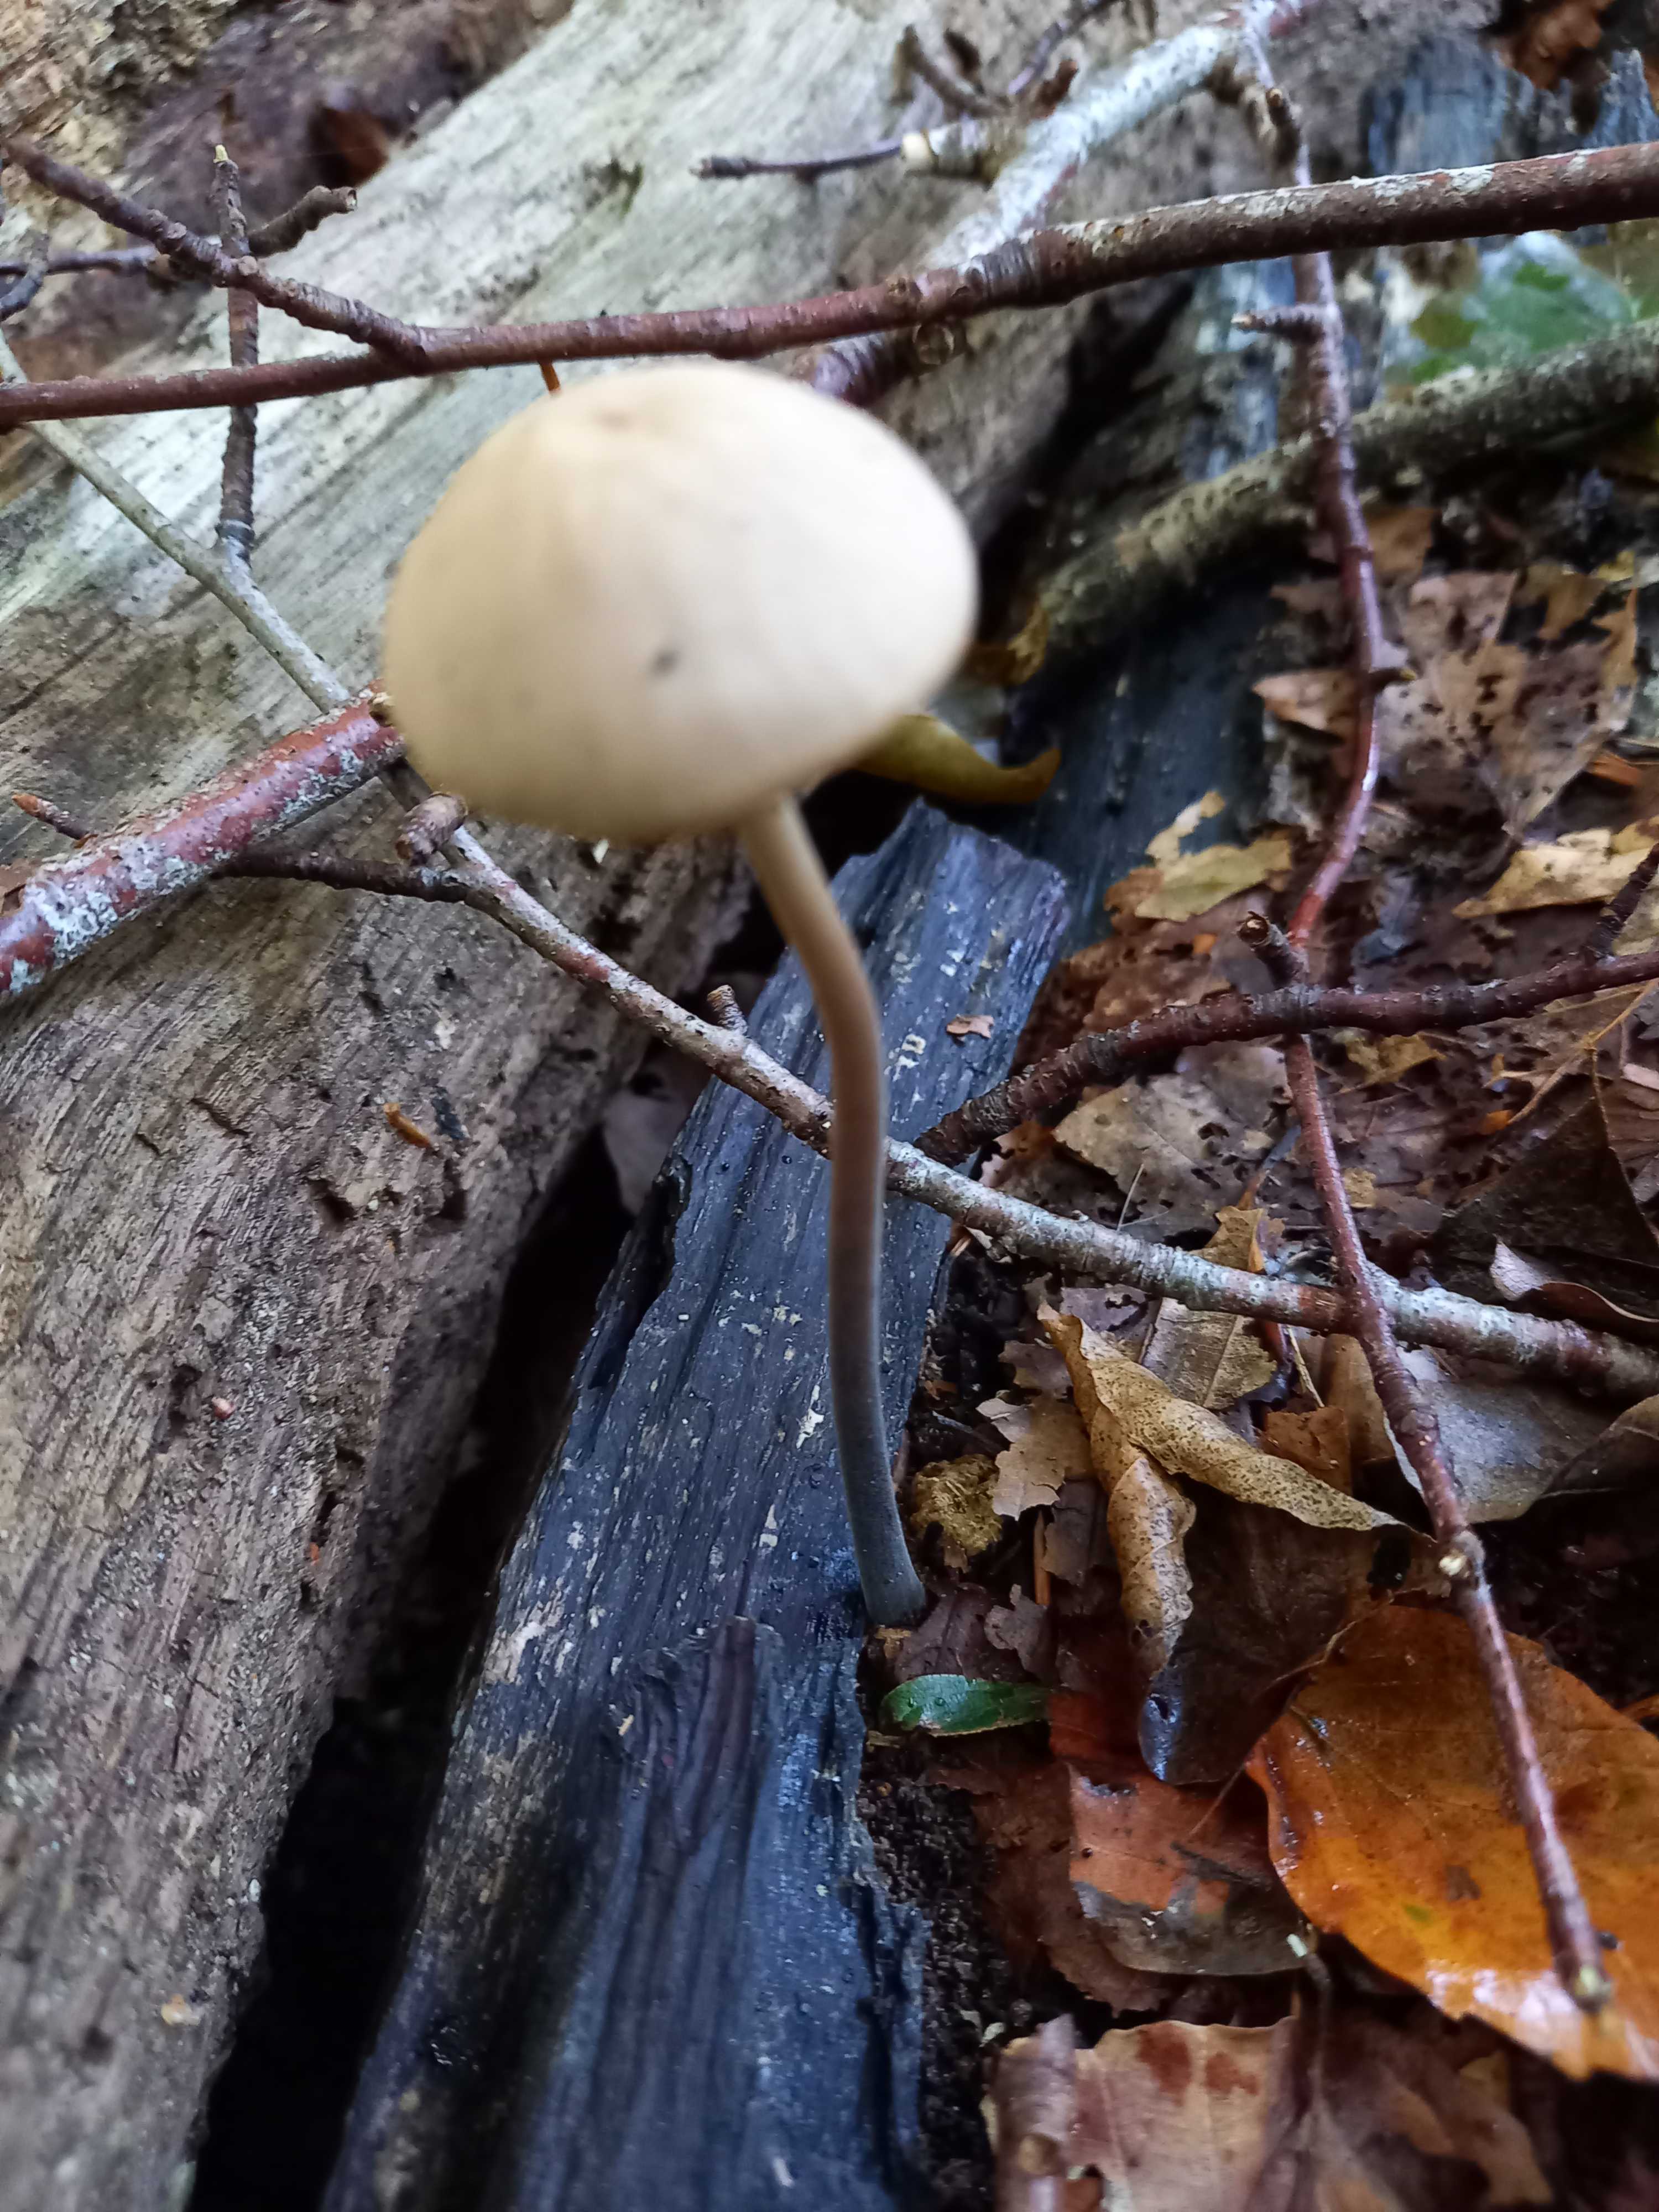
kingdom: Fungi
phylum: Basidiomycota
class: Agaricomycetes
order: Agaricales
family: Omphalotaceae
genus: Mycetinis
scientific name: Mycetinis alliaceus
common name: stor løghat
